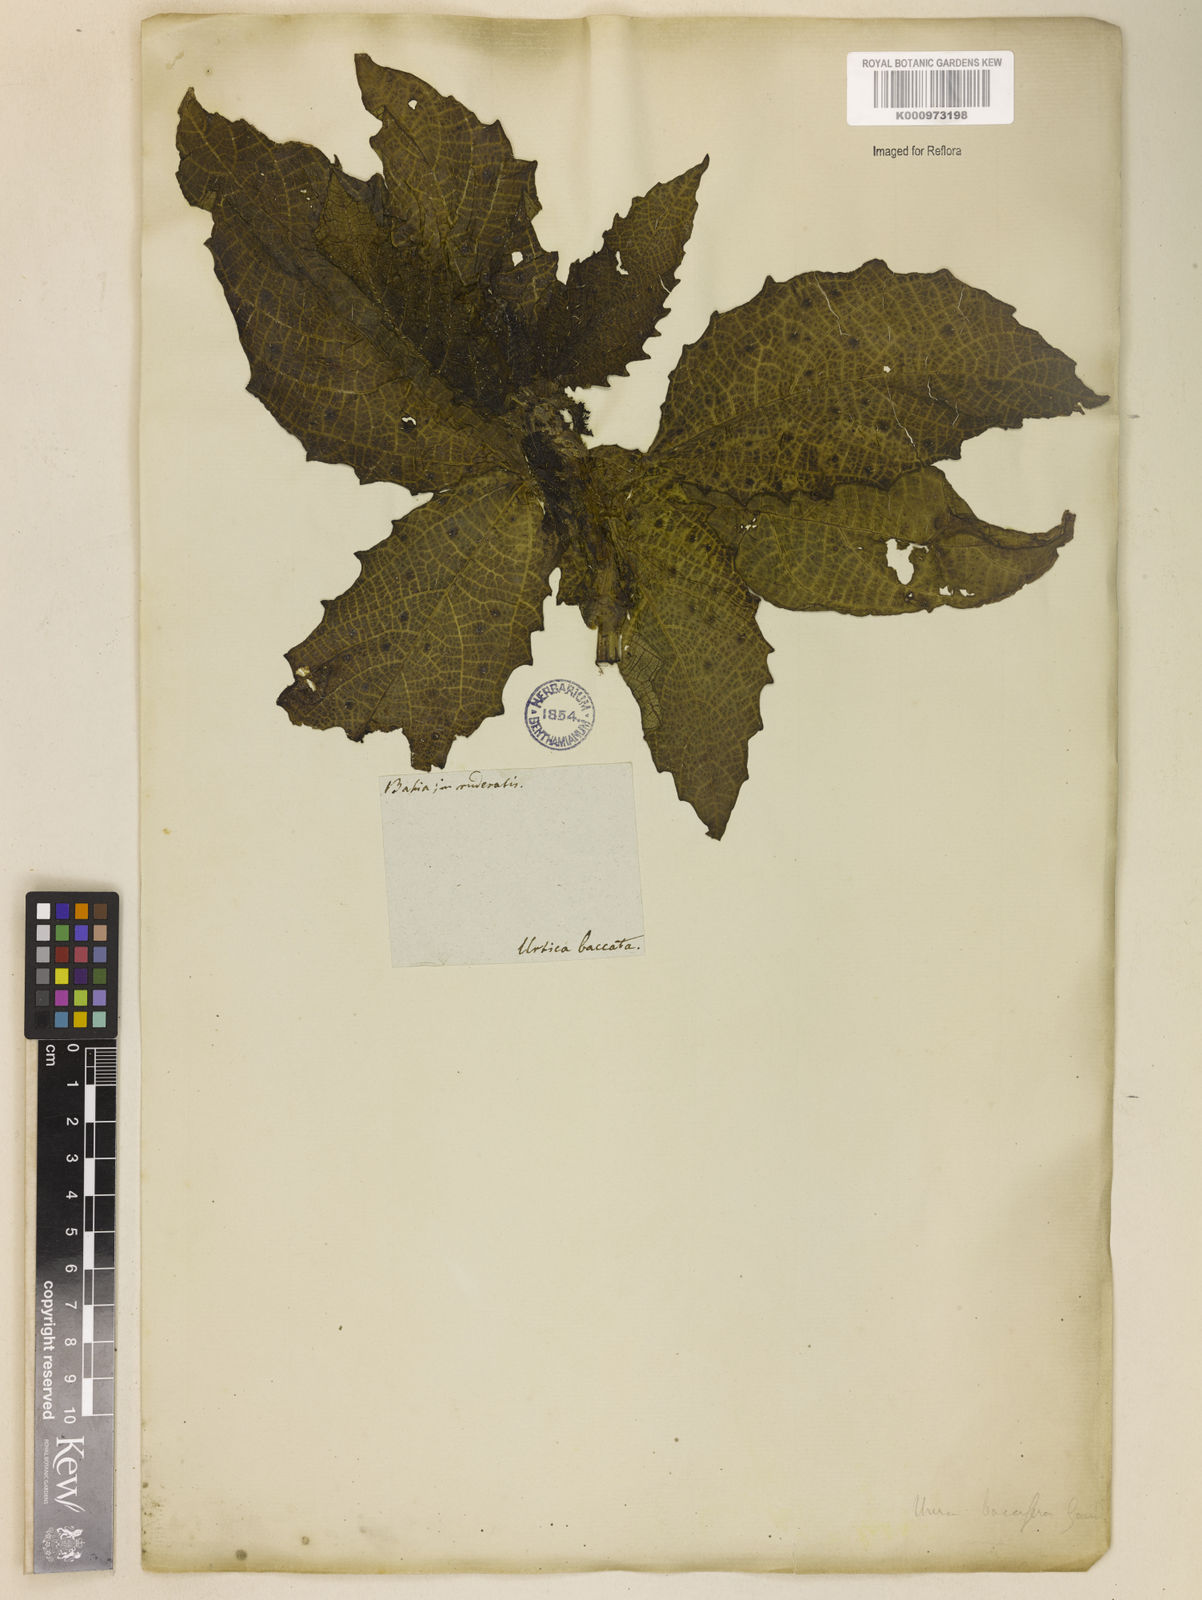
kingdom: Plantae
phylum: Tracheophyta
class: Magnoliopsida
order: Rosales
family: Urticaceae
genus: Urera
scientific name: Urera baccifera
